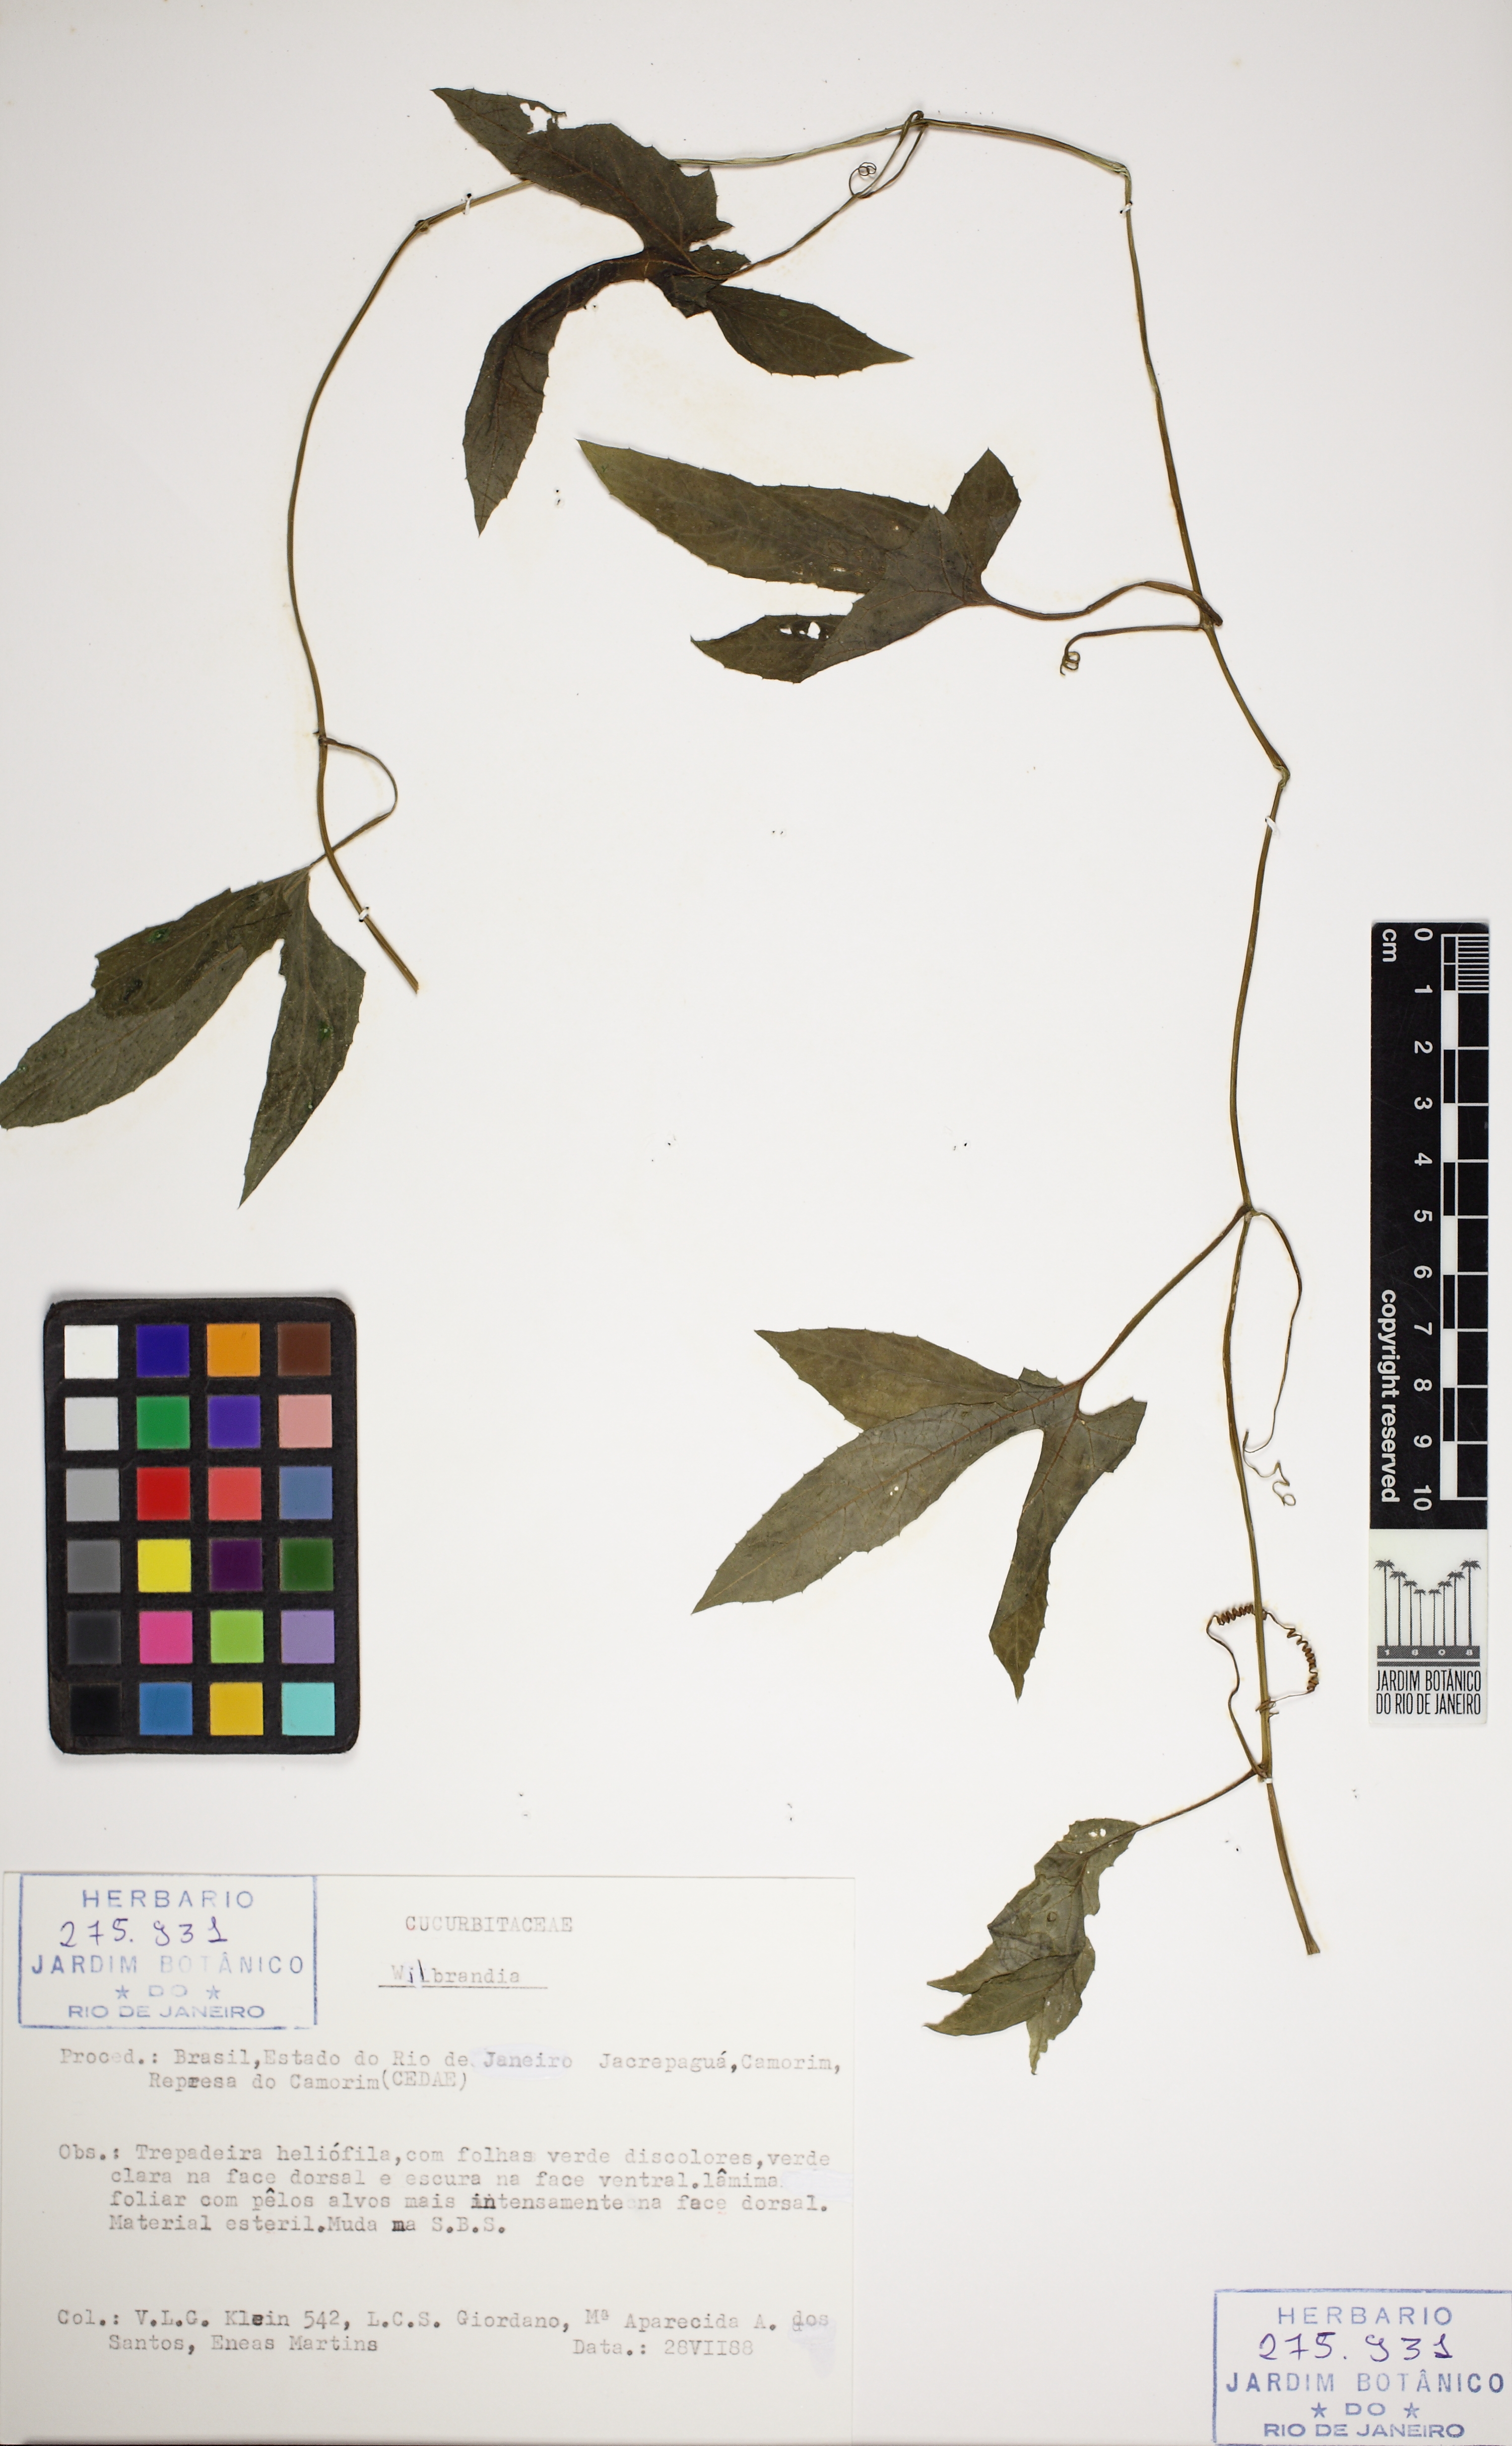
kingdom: Plantae
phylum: Tracheophyta
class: Magnoliopsida
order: Cucurbitales
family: Cucurbitaceae
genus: Wilbrandia
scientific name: Wilbrandia verticillata
